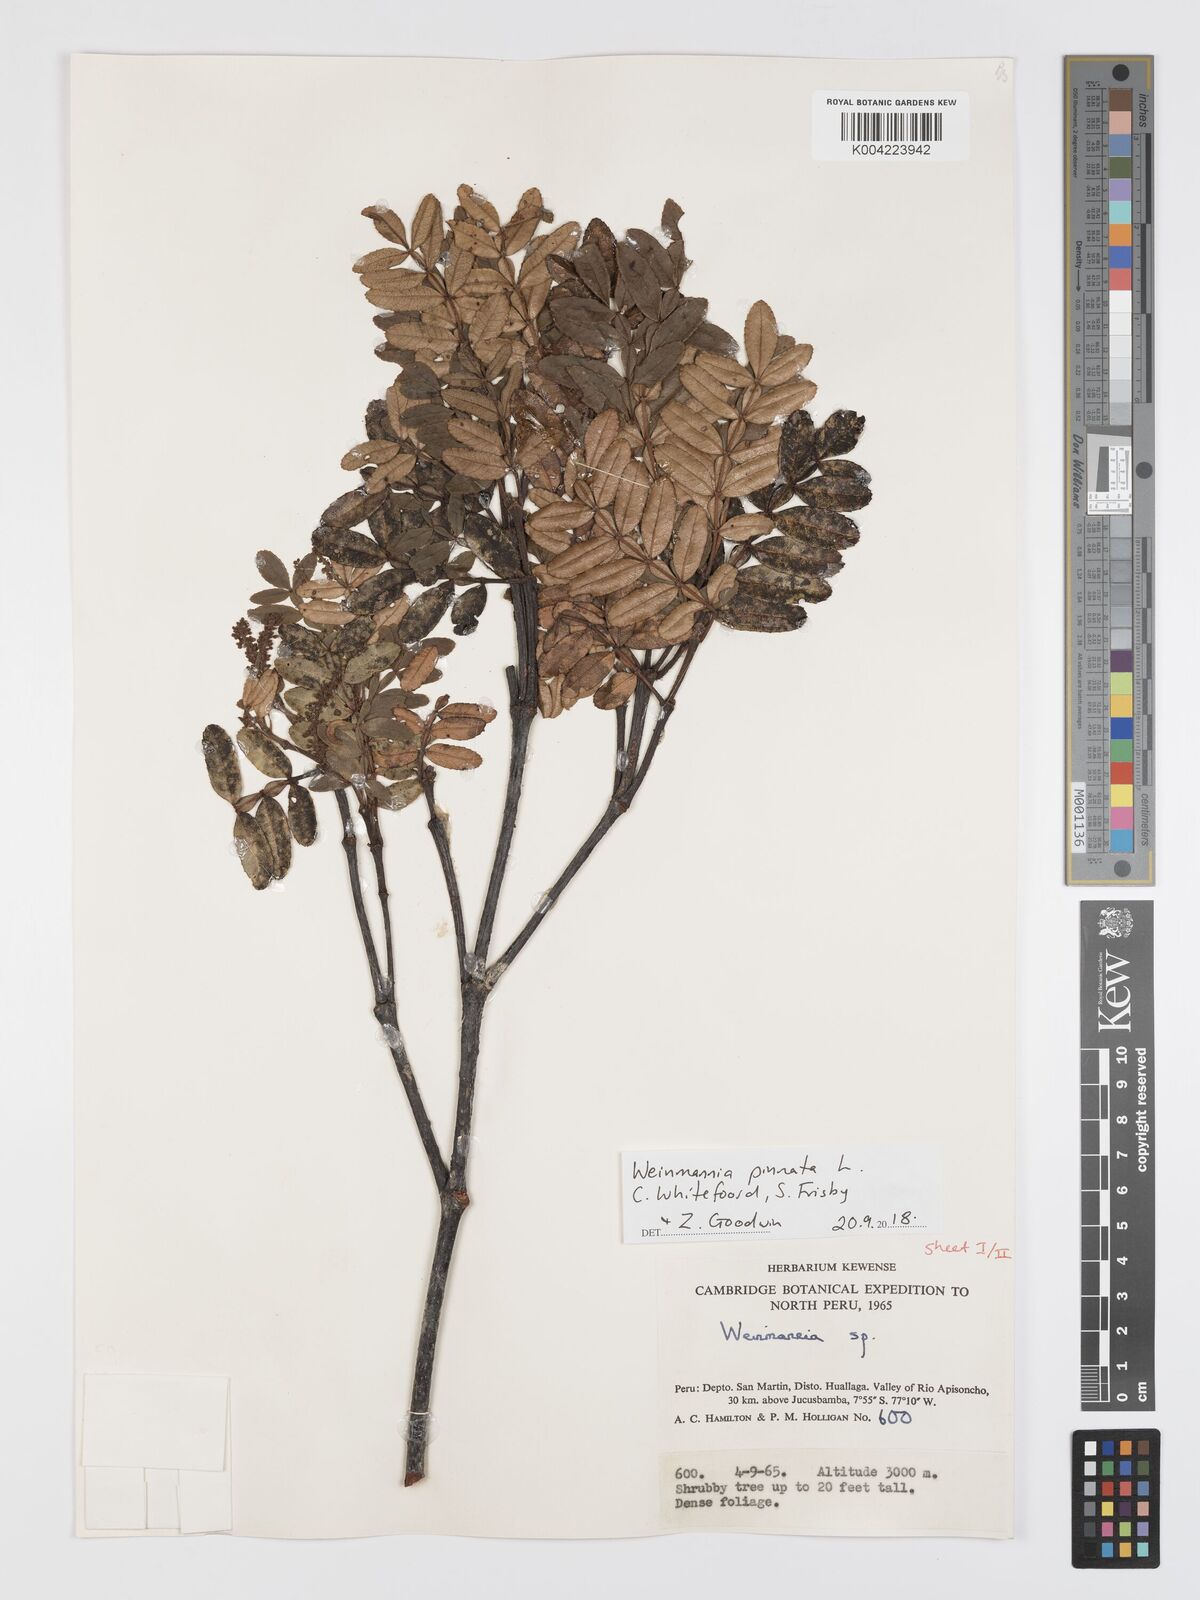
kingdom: Plantae
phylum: Tracheophyta
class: Magnoliopsida
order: Oxalidales
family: Cunoniaceae
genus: Weinmannia
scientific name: Weinmannia pinnata
